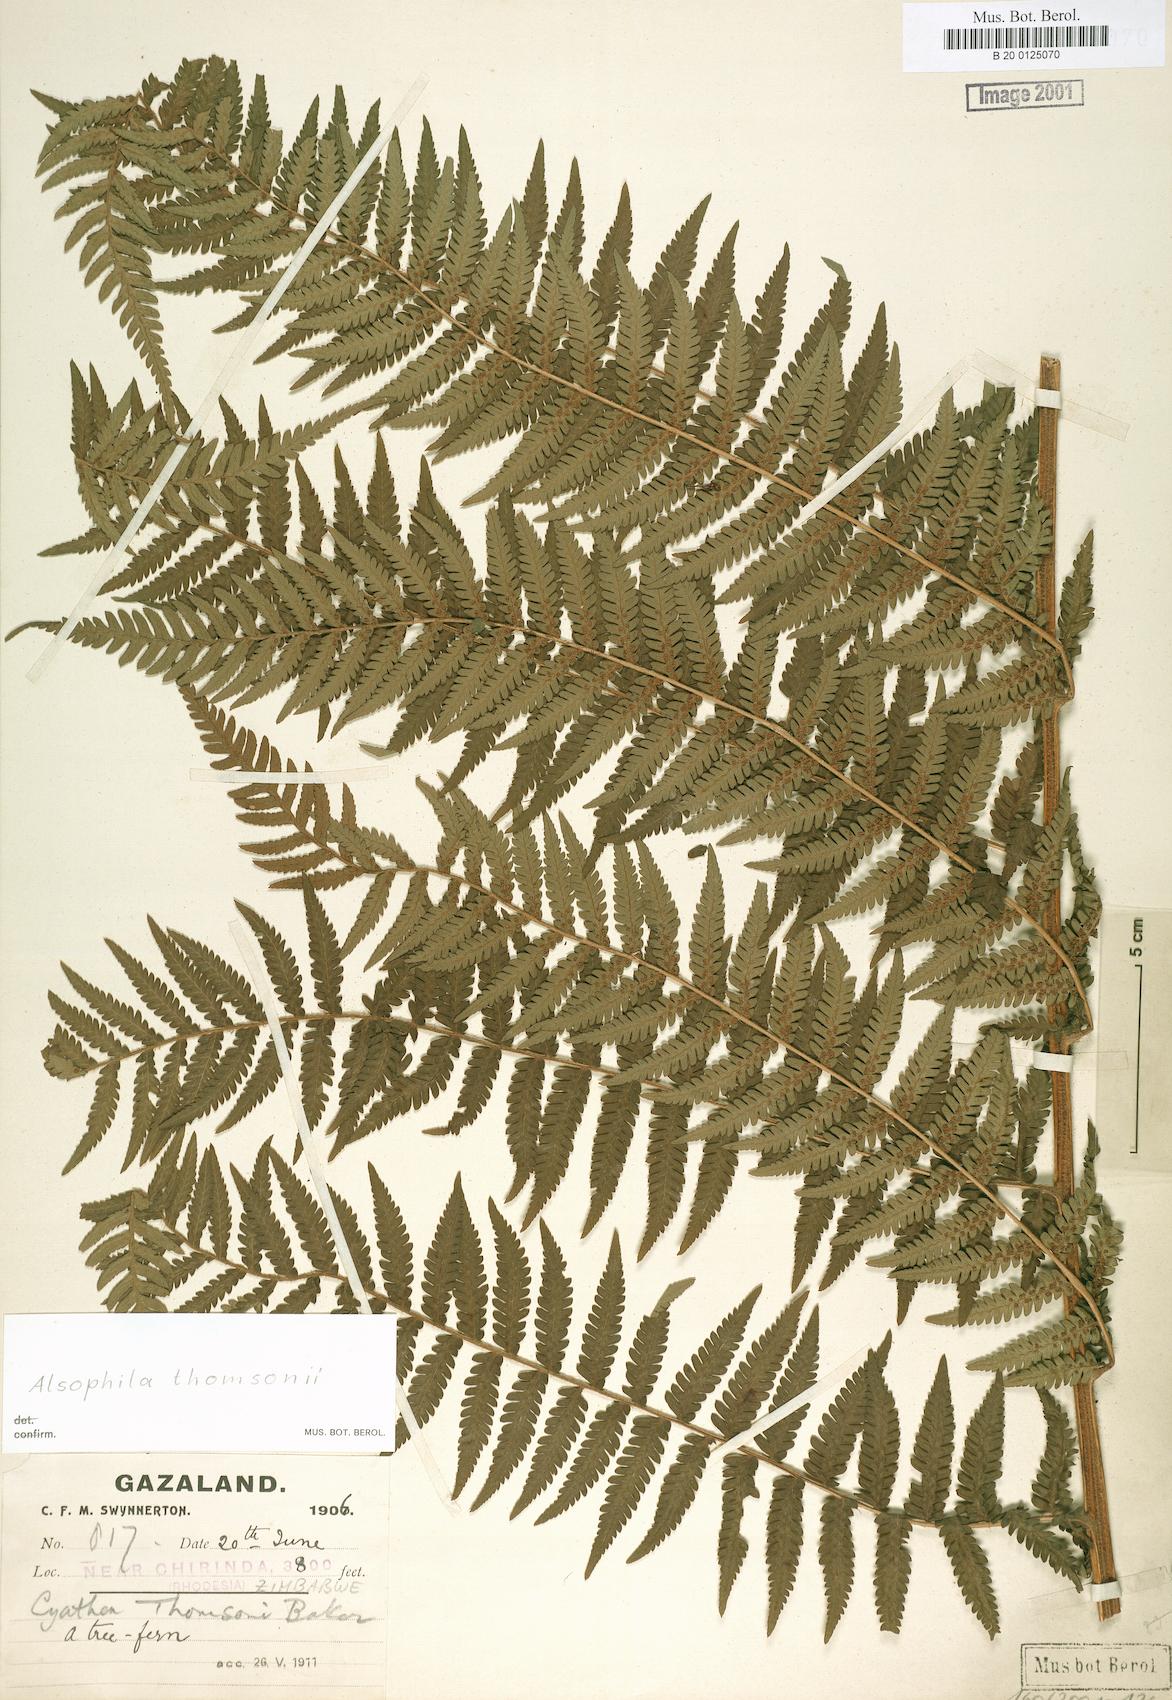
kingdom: Plantae
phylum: Tracheophyta
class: Polypodiopsida
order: Cyatheales
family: Cyatheaceae
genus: Alsophila
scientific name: Alsophila camerooniana
